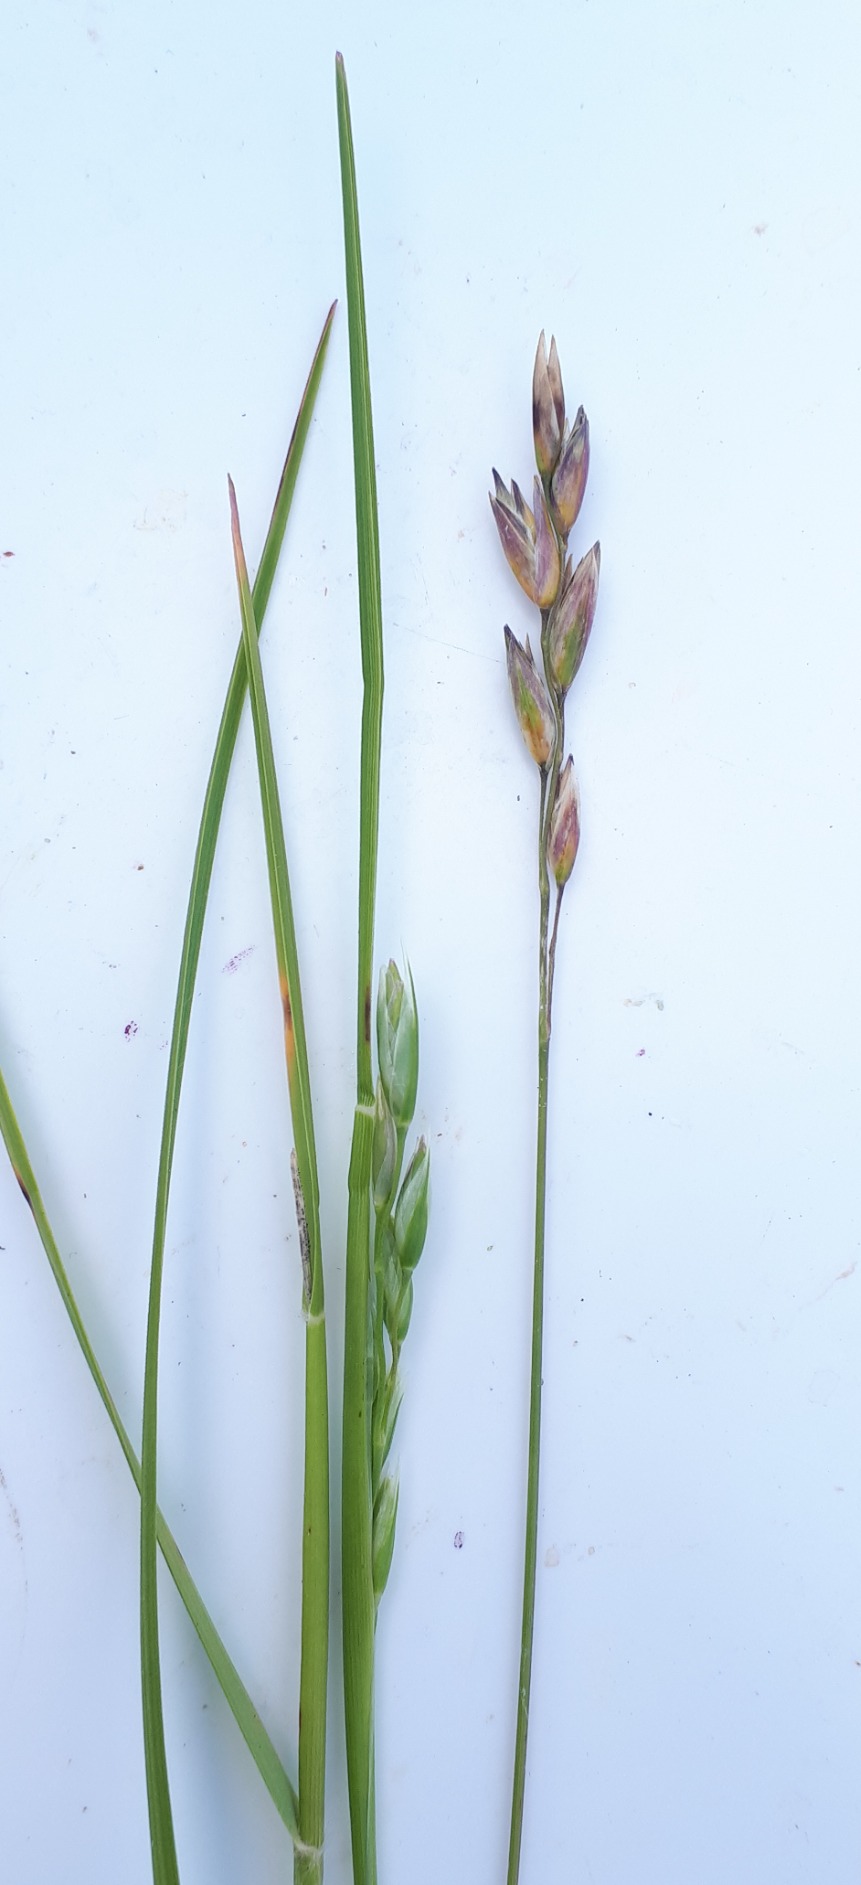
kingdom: Plantae
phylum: Tracheophyta
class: Liliopsida
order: Poales
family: Poaceae
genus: Danthonia
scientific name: Danthonia decumbens
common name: Tandbælg
